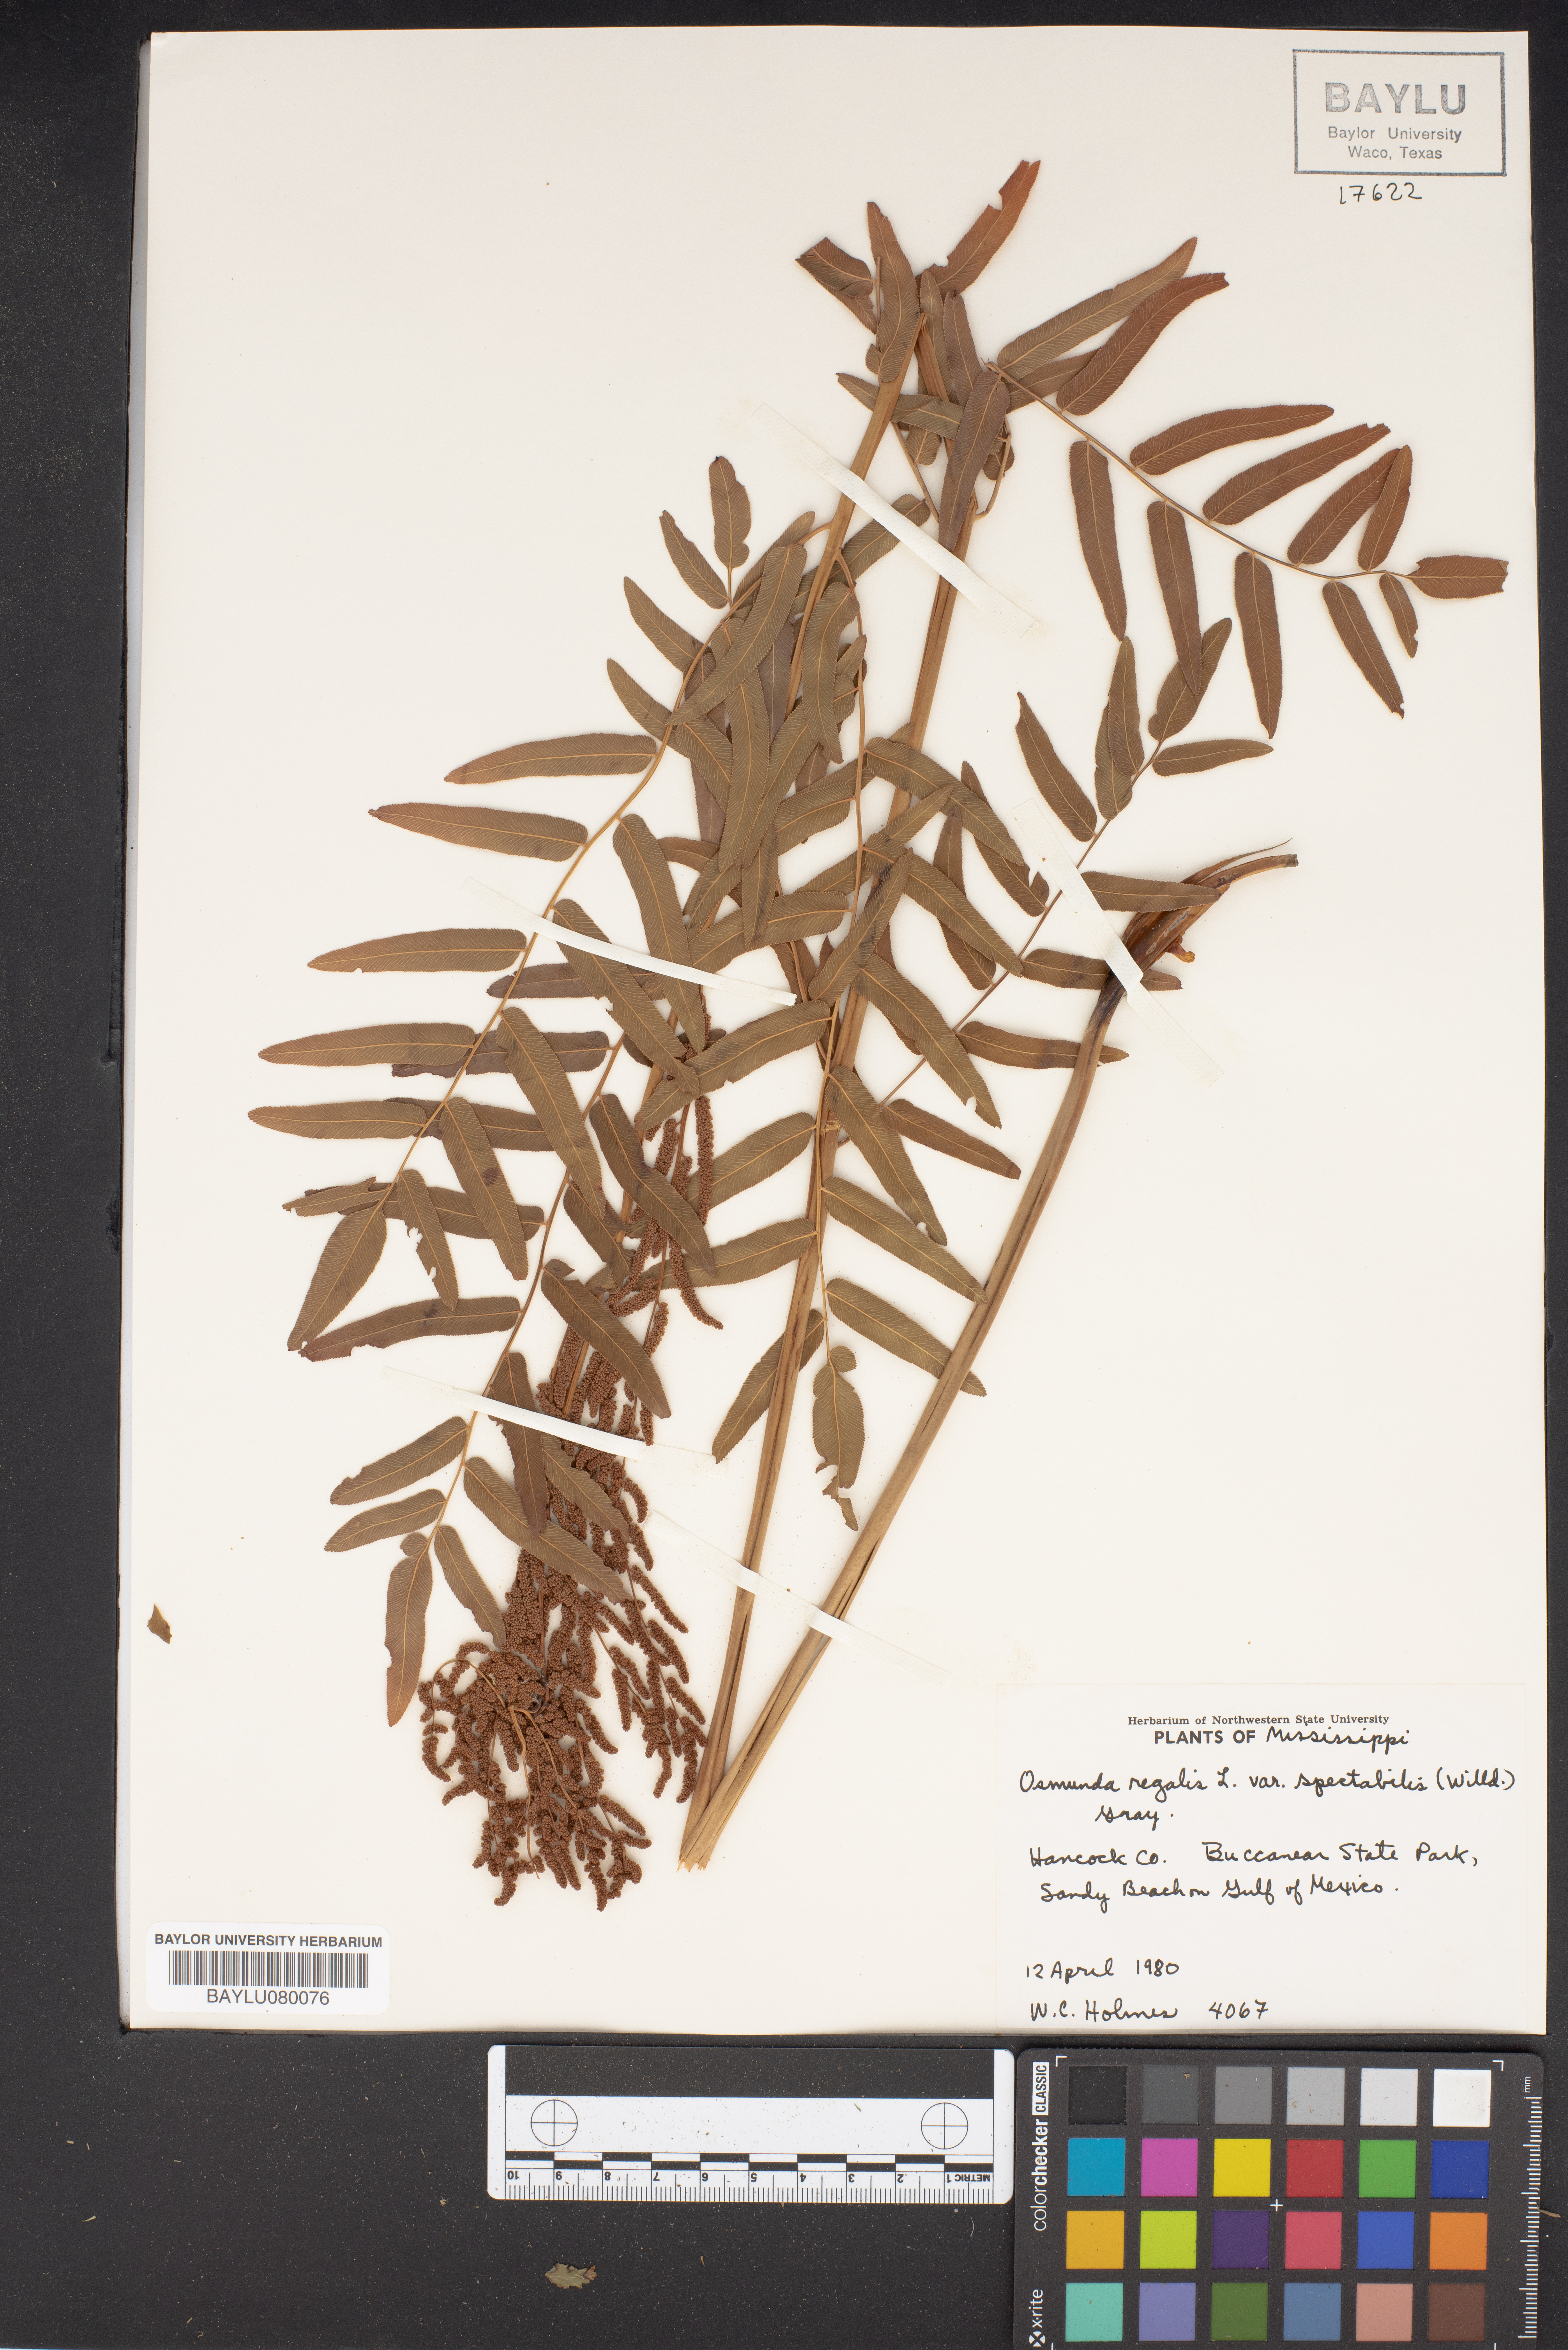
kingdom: Plantae
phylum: Tracheophyta
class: Polypodiopsida
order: Osmundales
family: Osmundaceae
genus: Osmunda
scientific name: Osmunda spectabilis
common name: American royal fern
